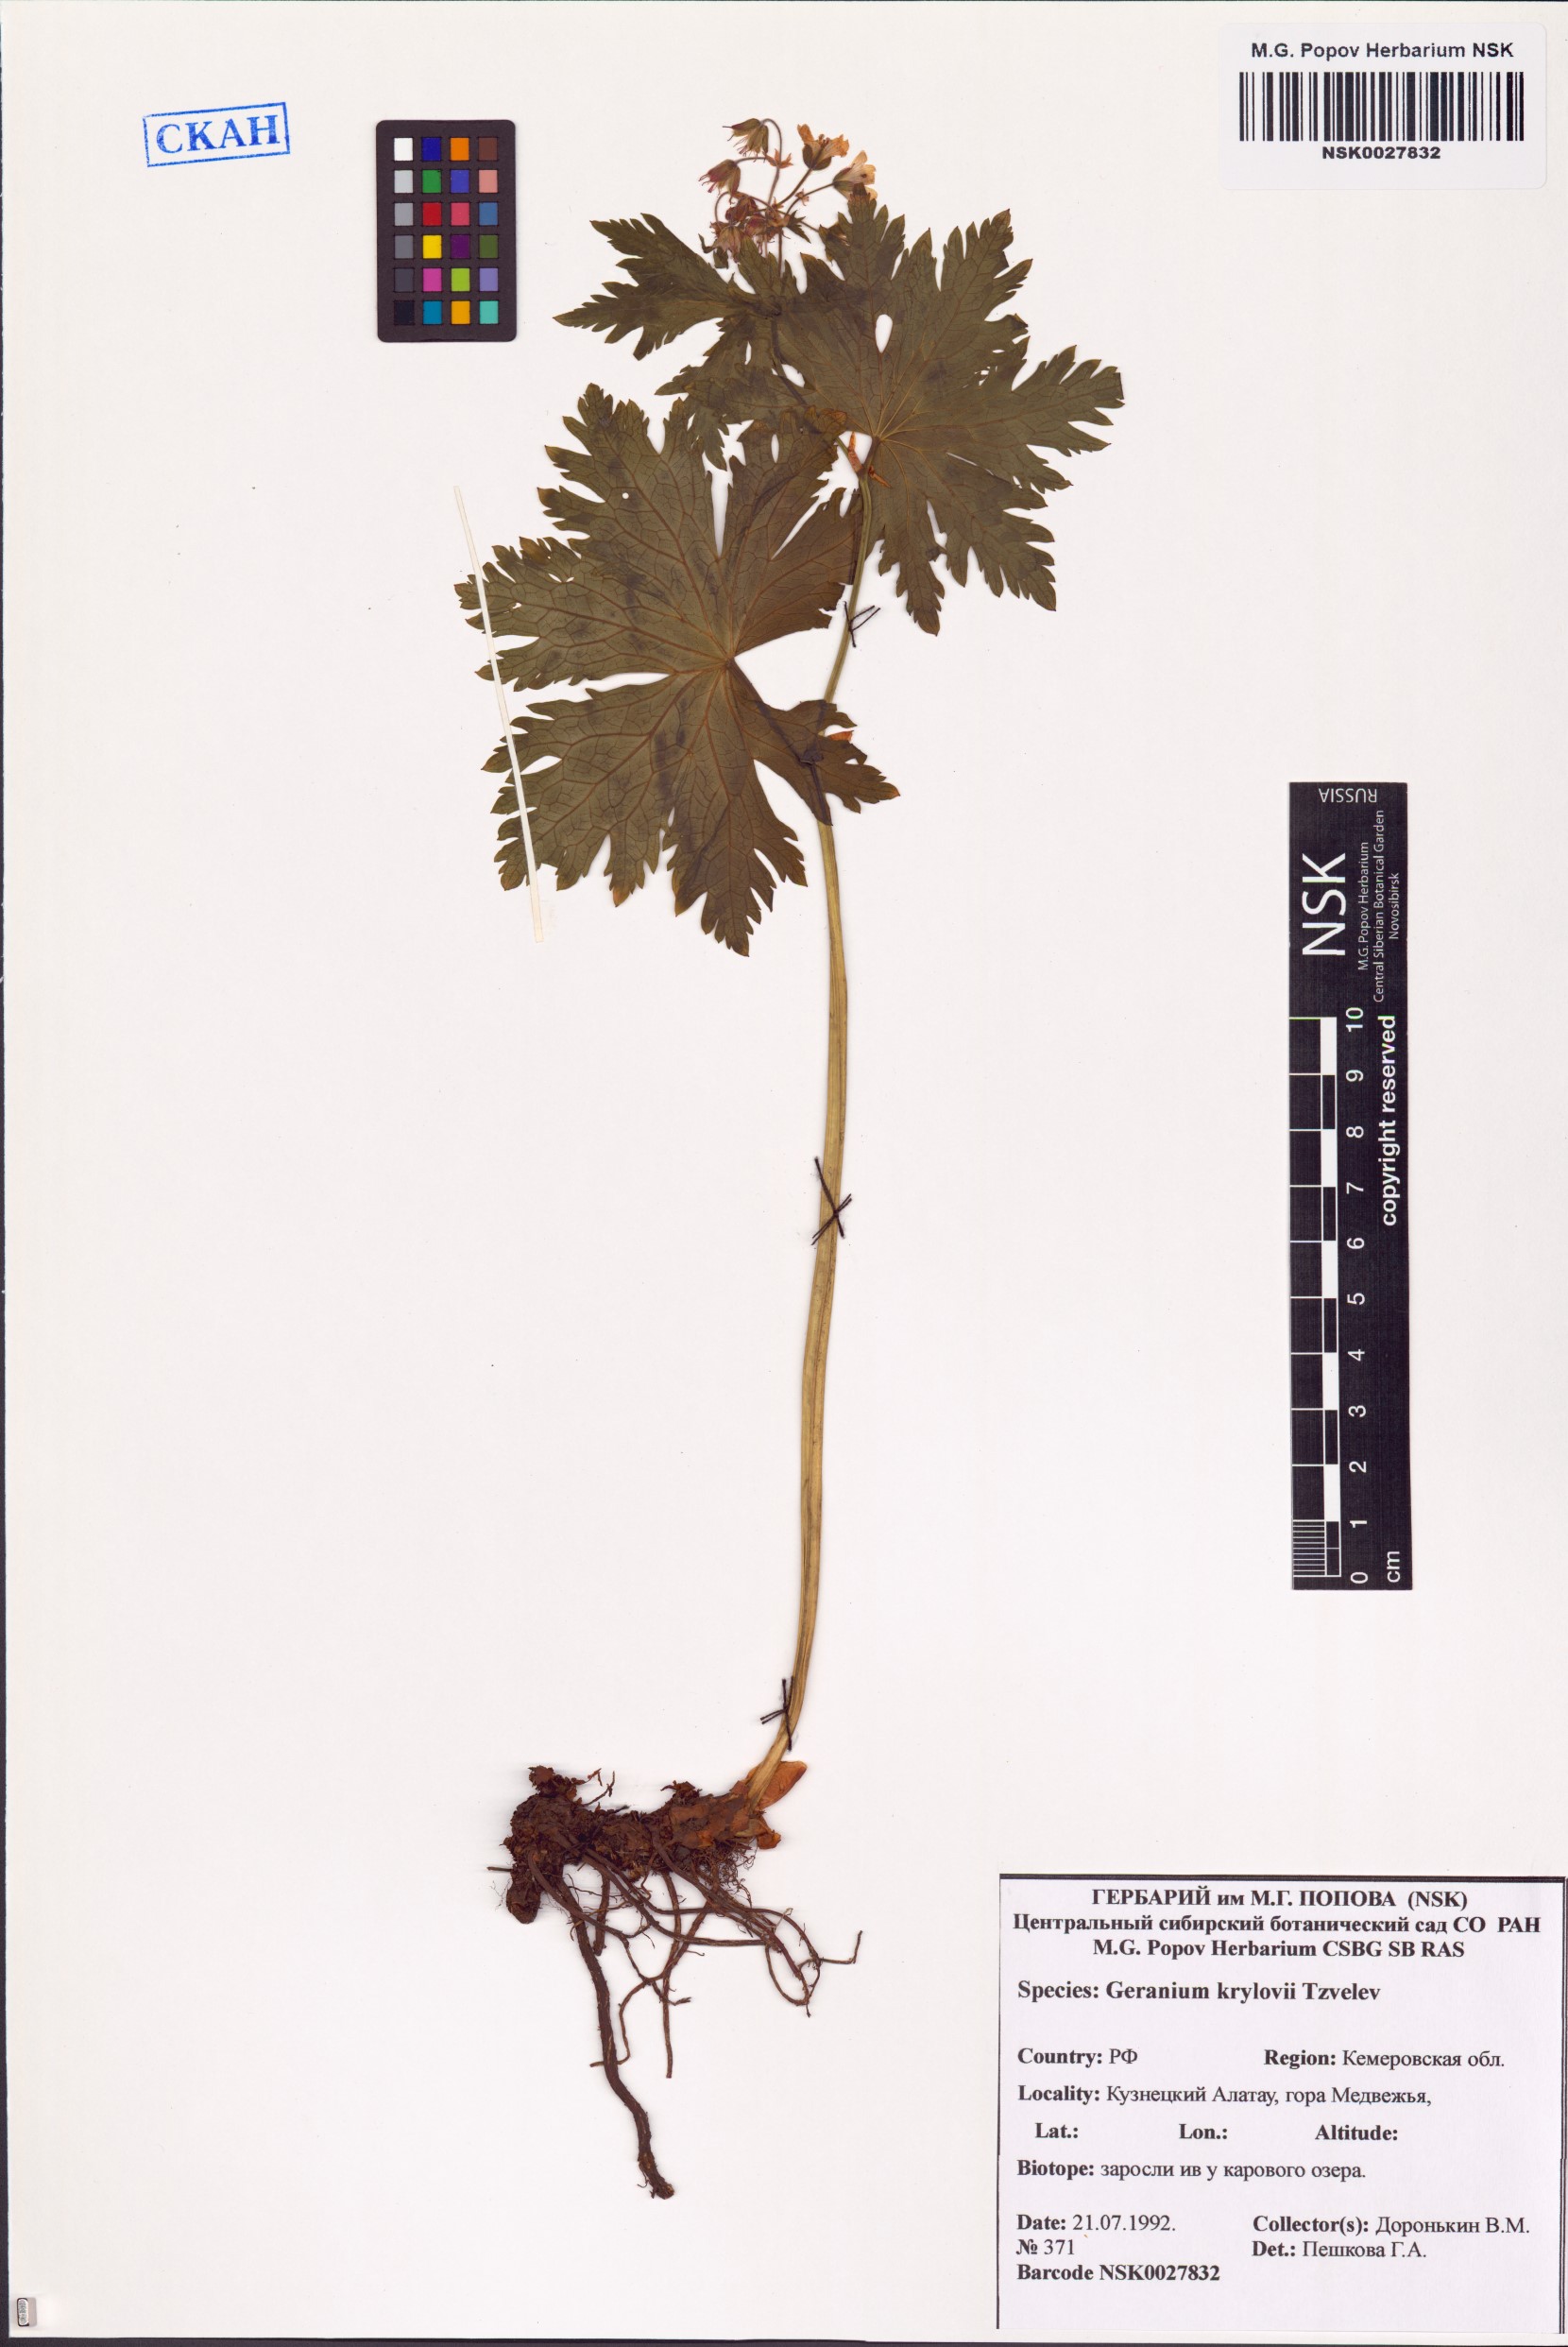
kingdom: Plantae
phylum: Tracheophyta
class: Magnoliopsida
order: Geraniales
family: Geraniaceae
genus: Geranium
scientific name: Geranium sylvaticum
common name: Wood crane's-bill
